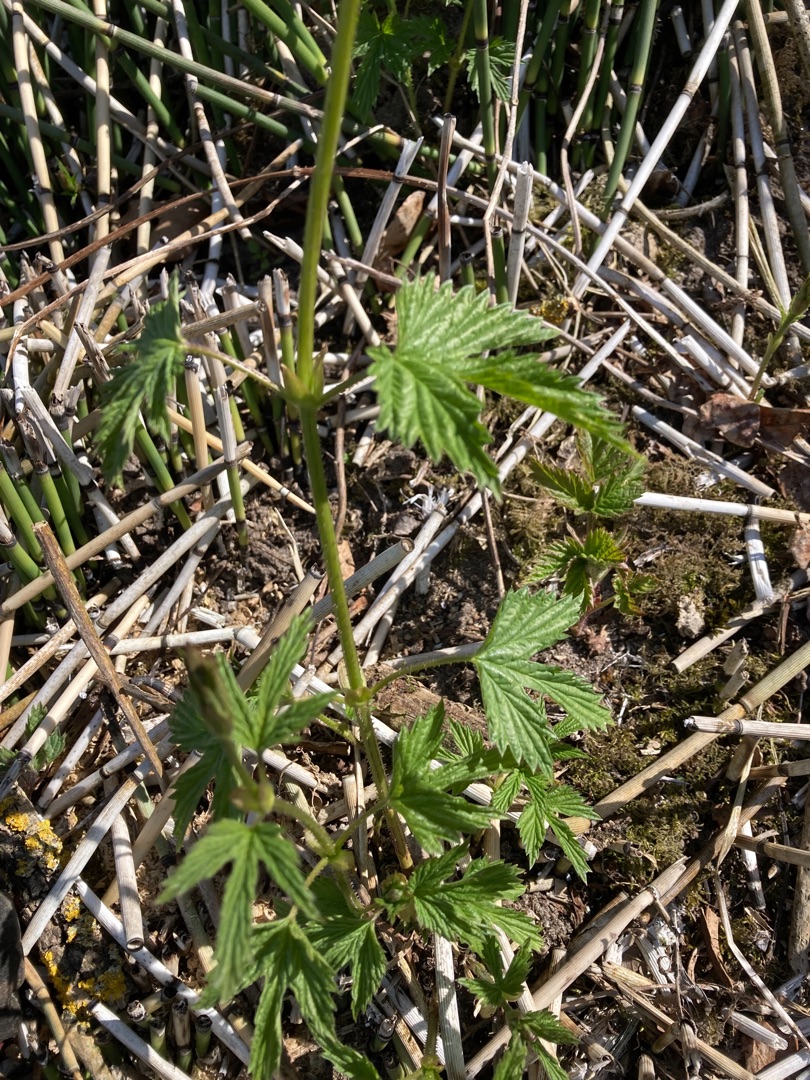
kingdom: Plantae
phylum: Tracheophyta
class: Magnoliopsida
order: Rosales
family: Cannabaceae
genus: Humulus
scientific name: Humulus lupulus
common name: Humle
